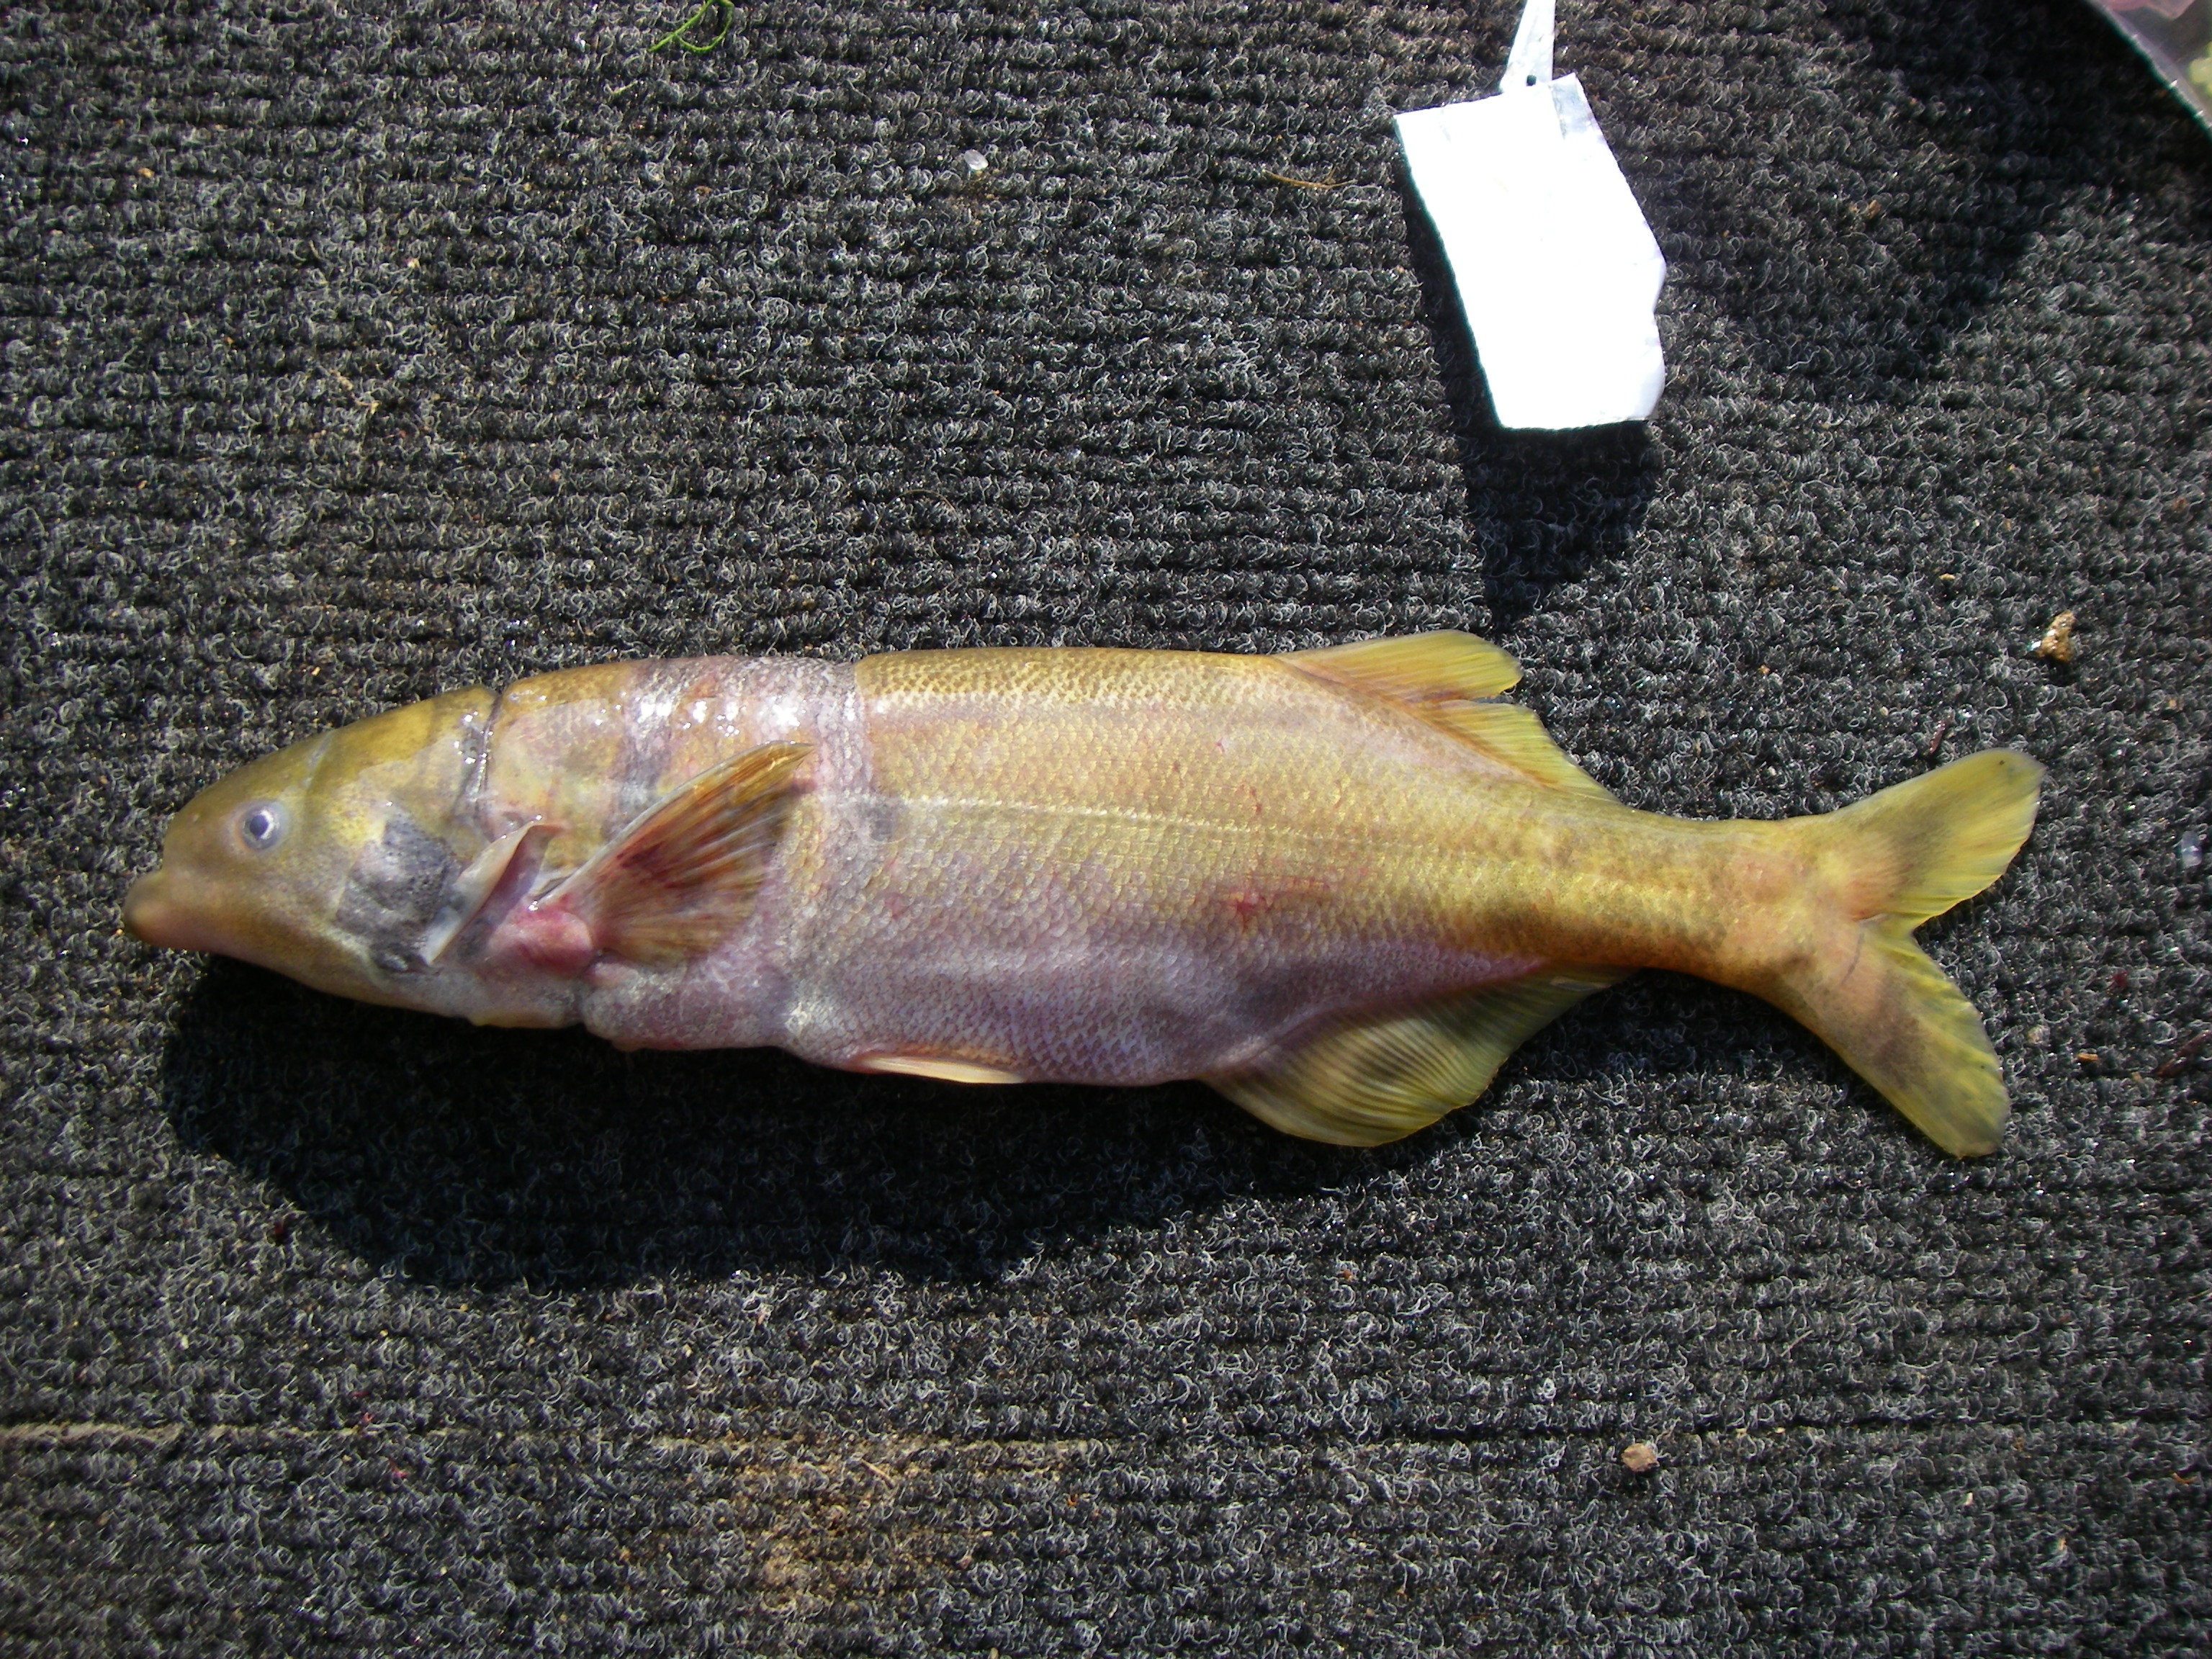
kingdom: Animalia
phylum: Chordata
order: Osteoglossiformes
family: Mormyridae
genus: Marcusenius
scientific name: Marcusenius macrolepidotus
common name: Bulldog
